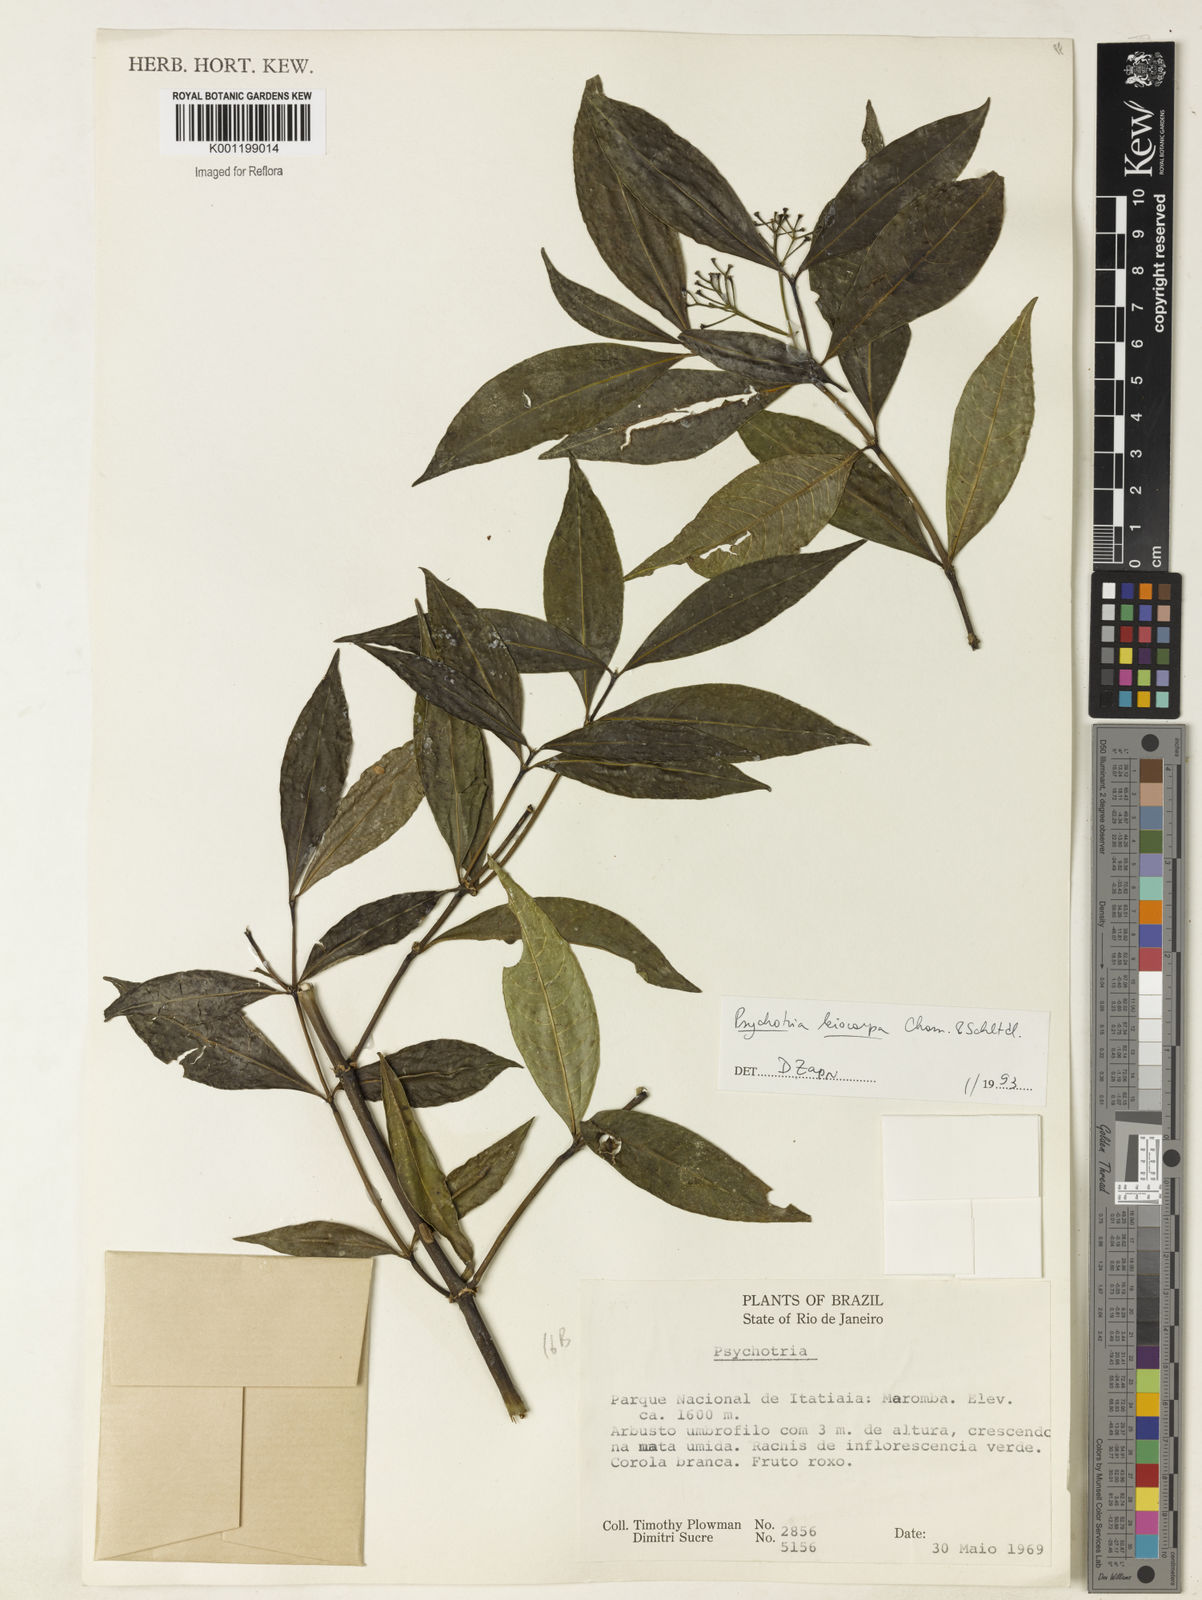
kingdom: Plantae
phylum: Tracheophyta
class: Magnoliopsida
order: Gentianales
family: Rubiaceae
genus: Psychotria
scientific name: Psychotria leiocarpa
